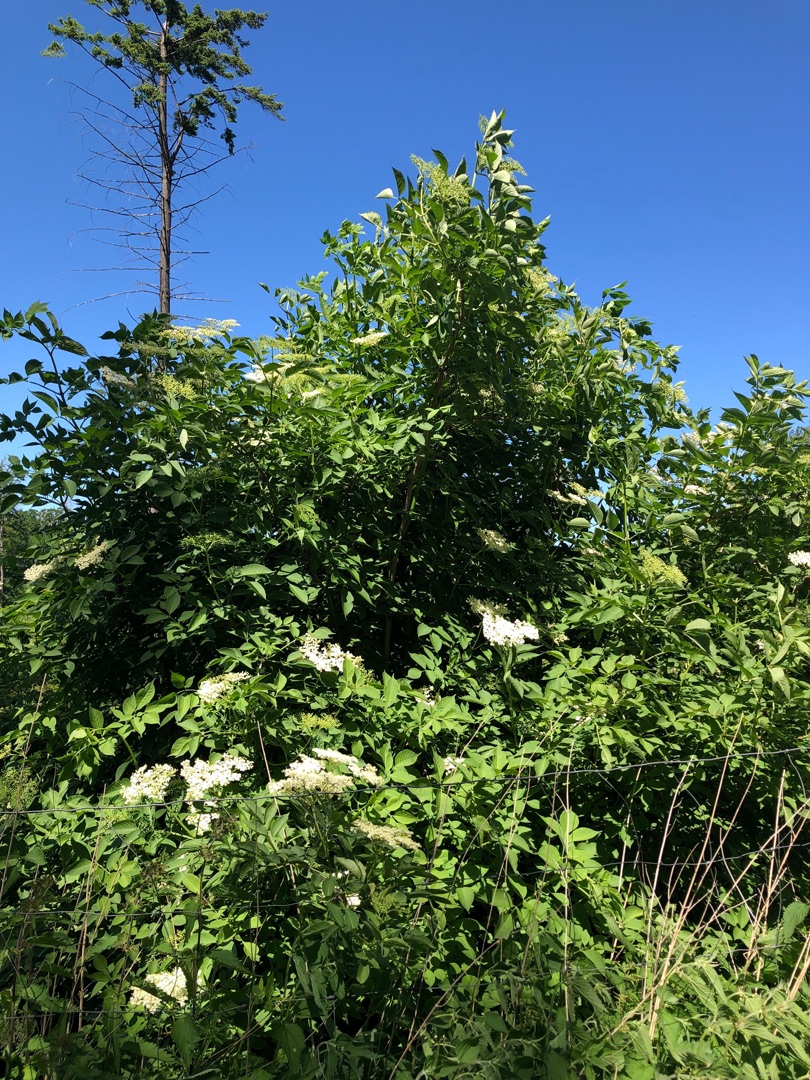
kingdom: Plantae
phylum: Tracheophyta
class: Magnoliopsida
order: Dipsacales
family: Viburnaceae
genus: Sambucus
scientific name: Sambucus nigra
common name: Almindelig hyld
